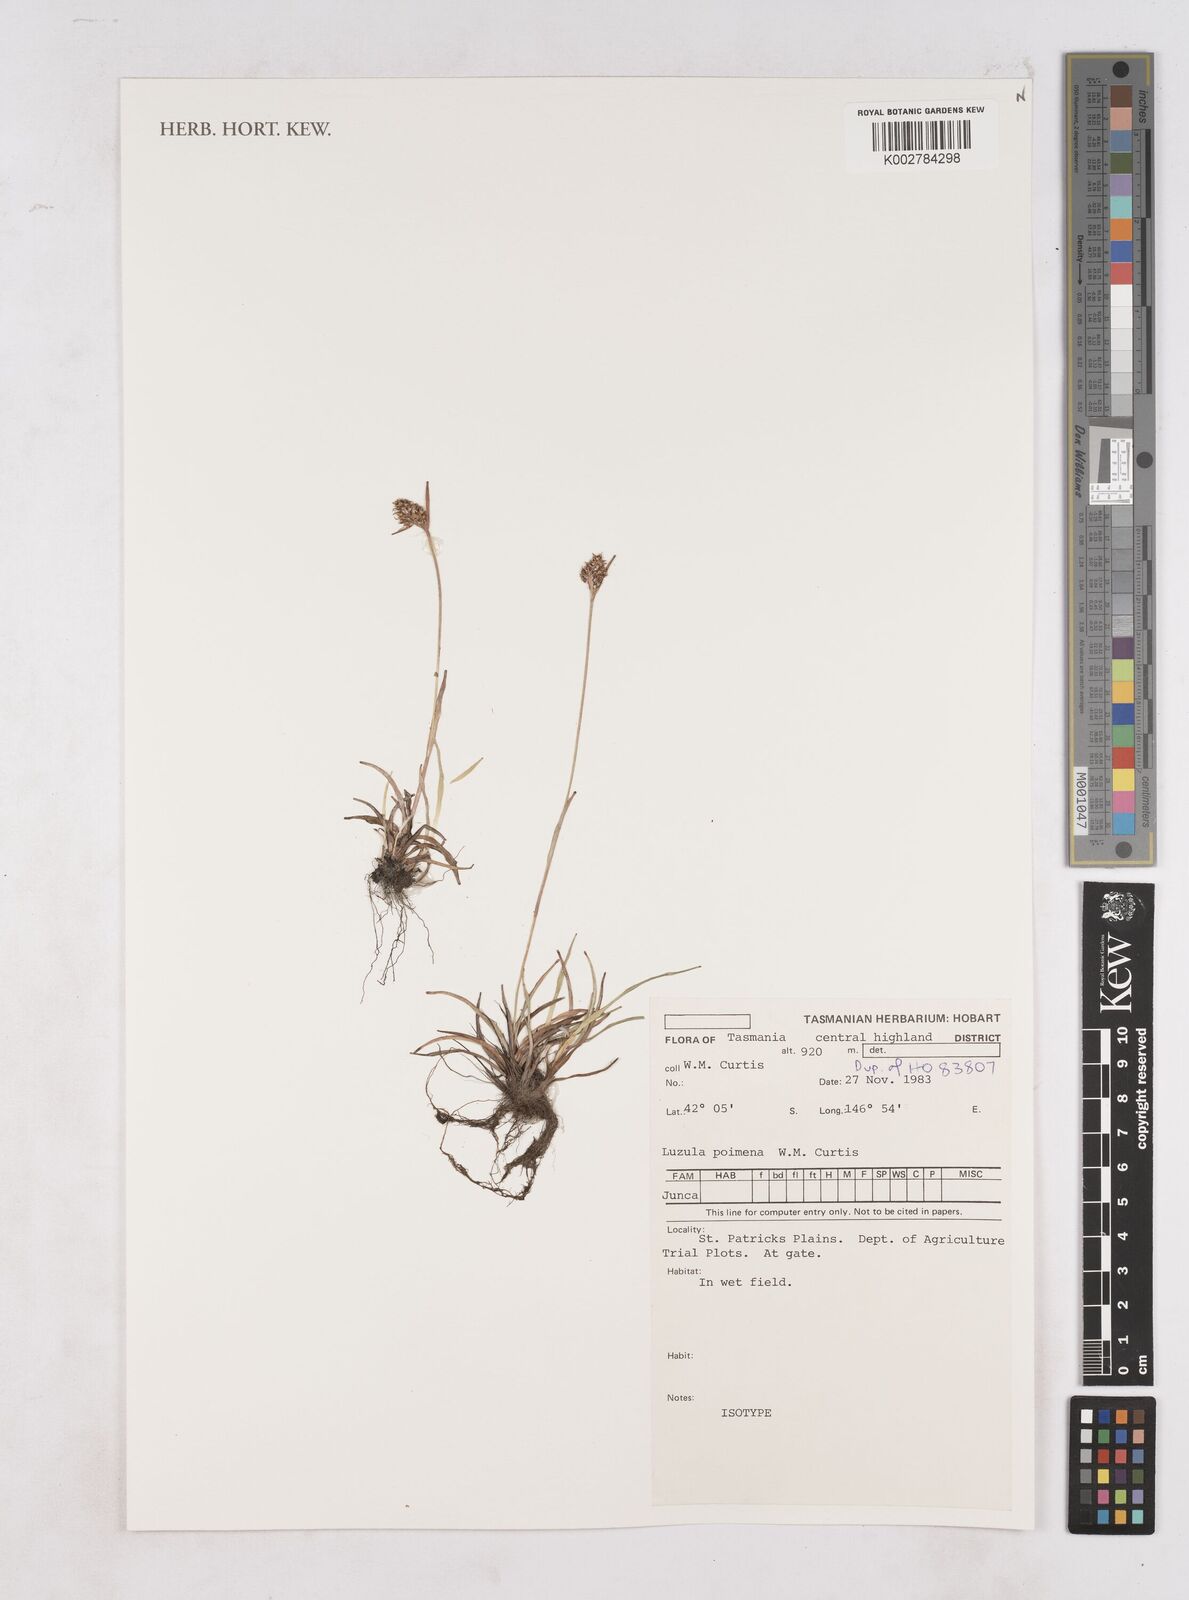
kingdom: Plantae
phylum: Tracheophyta
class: Liliopsida
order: Poales
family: Juncaceae
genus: Luzula
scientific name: Luzula poimena
